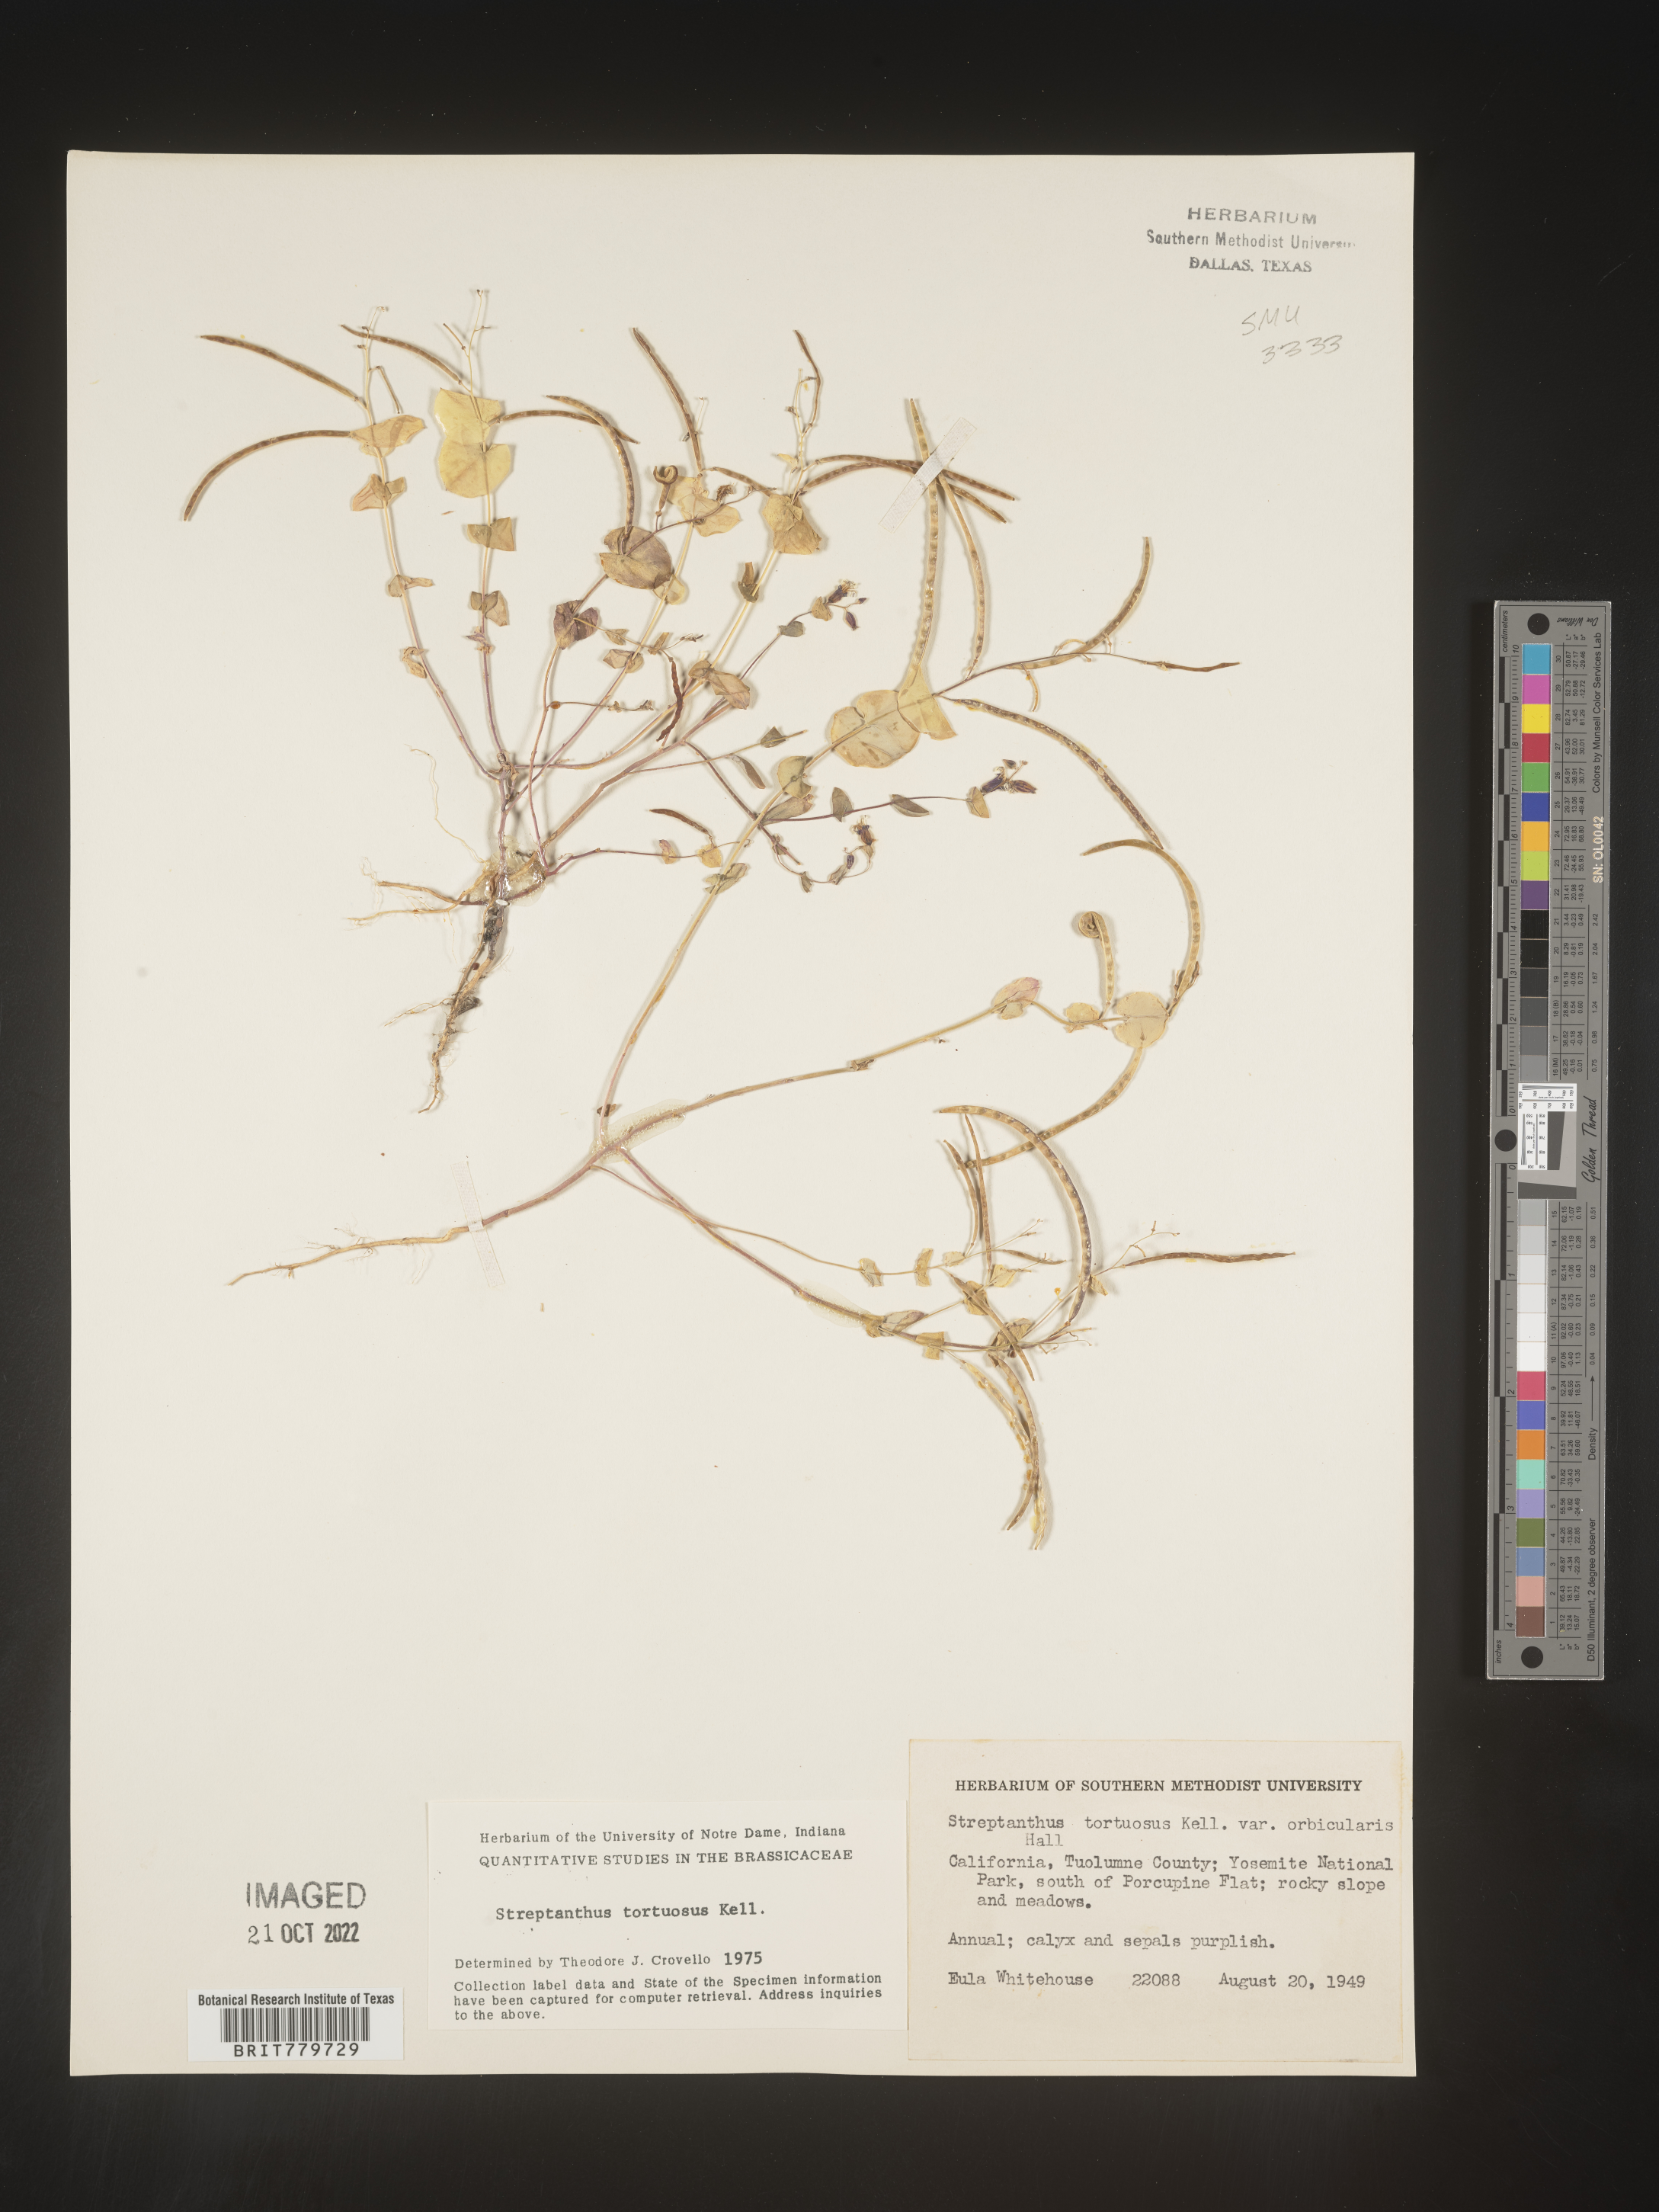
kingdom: Plantae
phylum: Tracheophyta
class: Magnoliopsida
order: Brassicales
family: Brassicaceae
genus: Streptanthus
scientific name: Streptanthus
